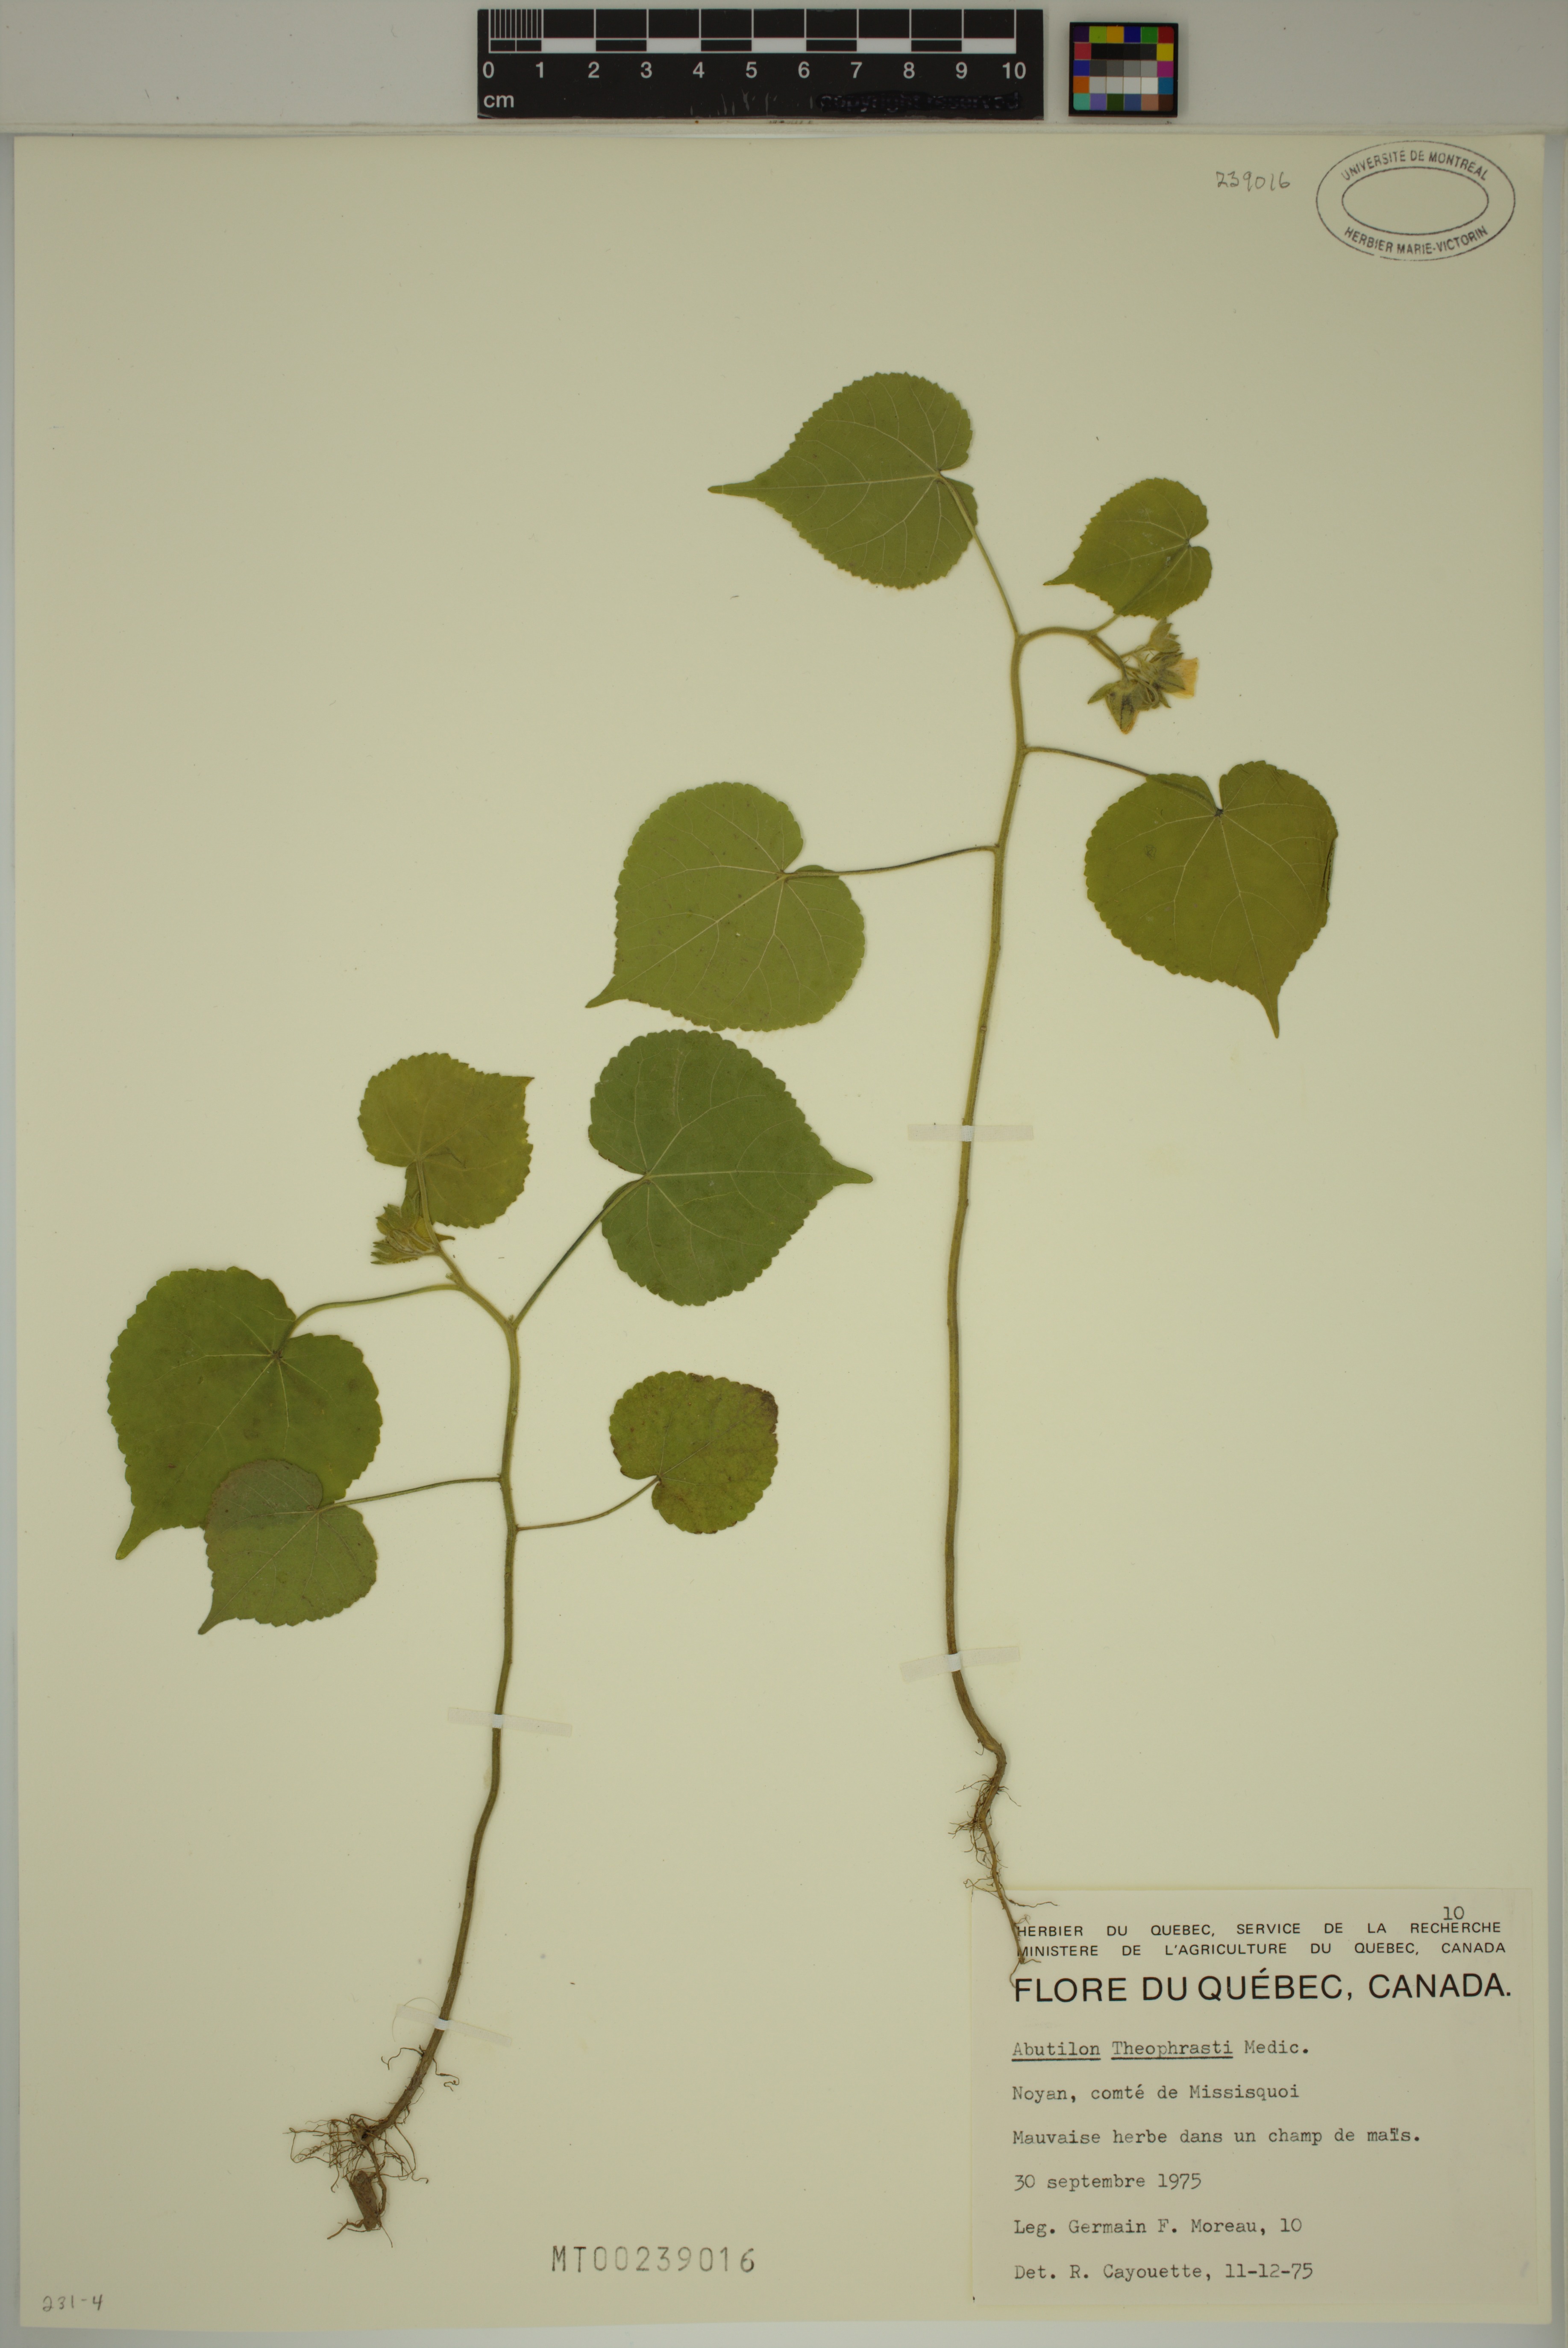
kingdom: Plantae
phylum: Tracheophyta
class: Magnoliopsida
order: Malvales
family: Malvaceae
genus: Abutilon
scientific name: Abutilon theophrasti
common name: Velvetleaf
